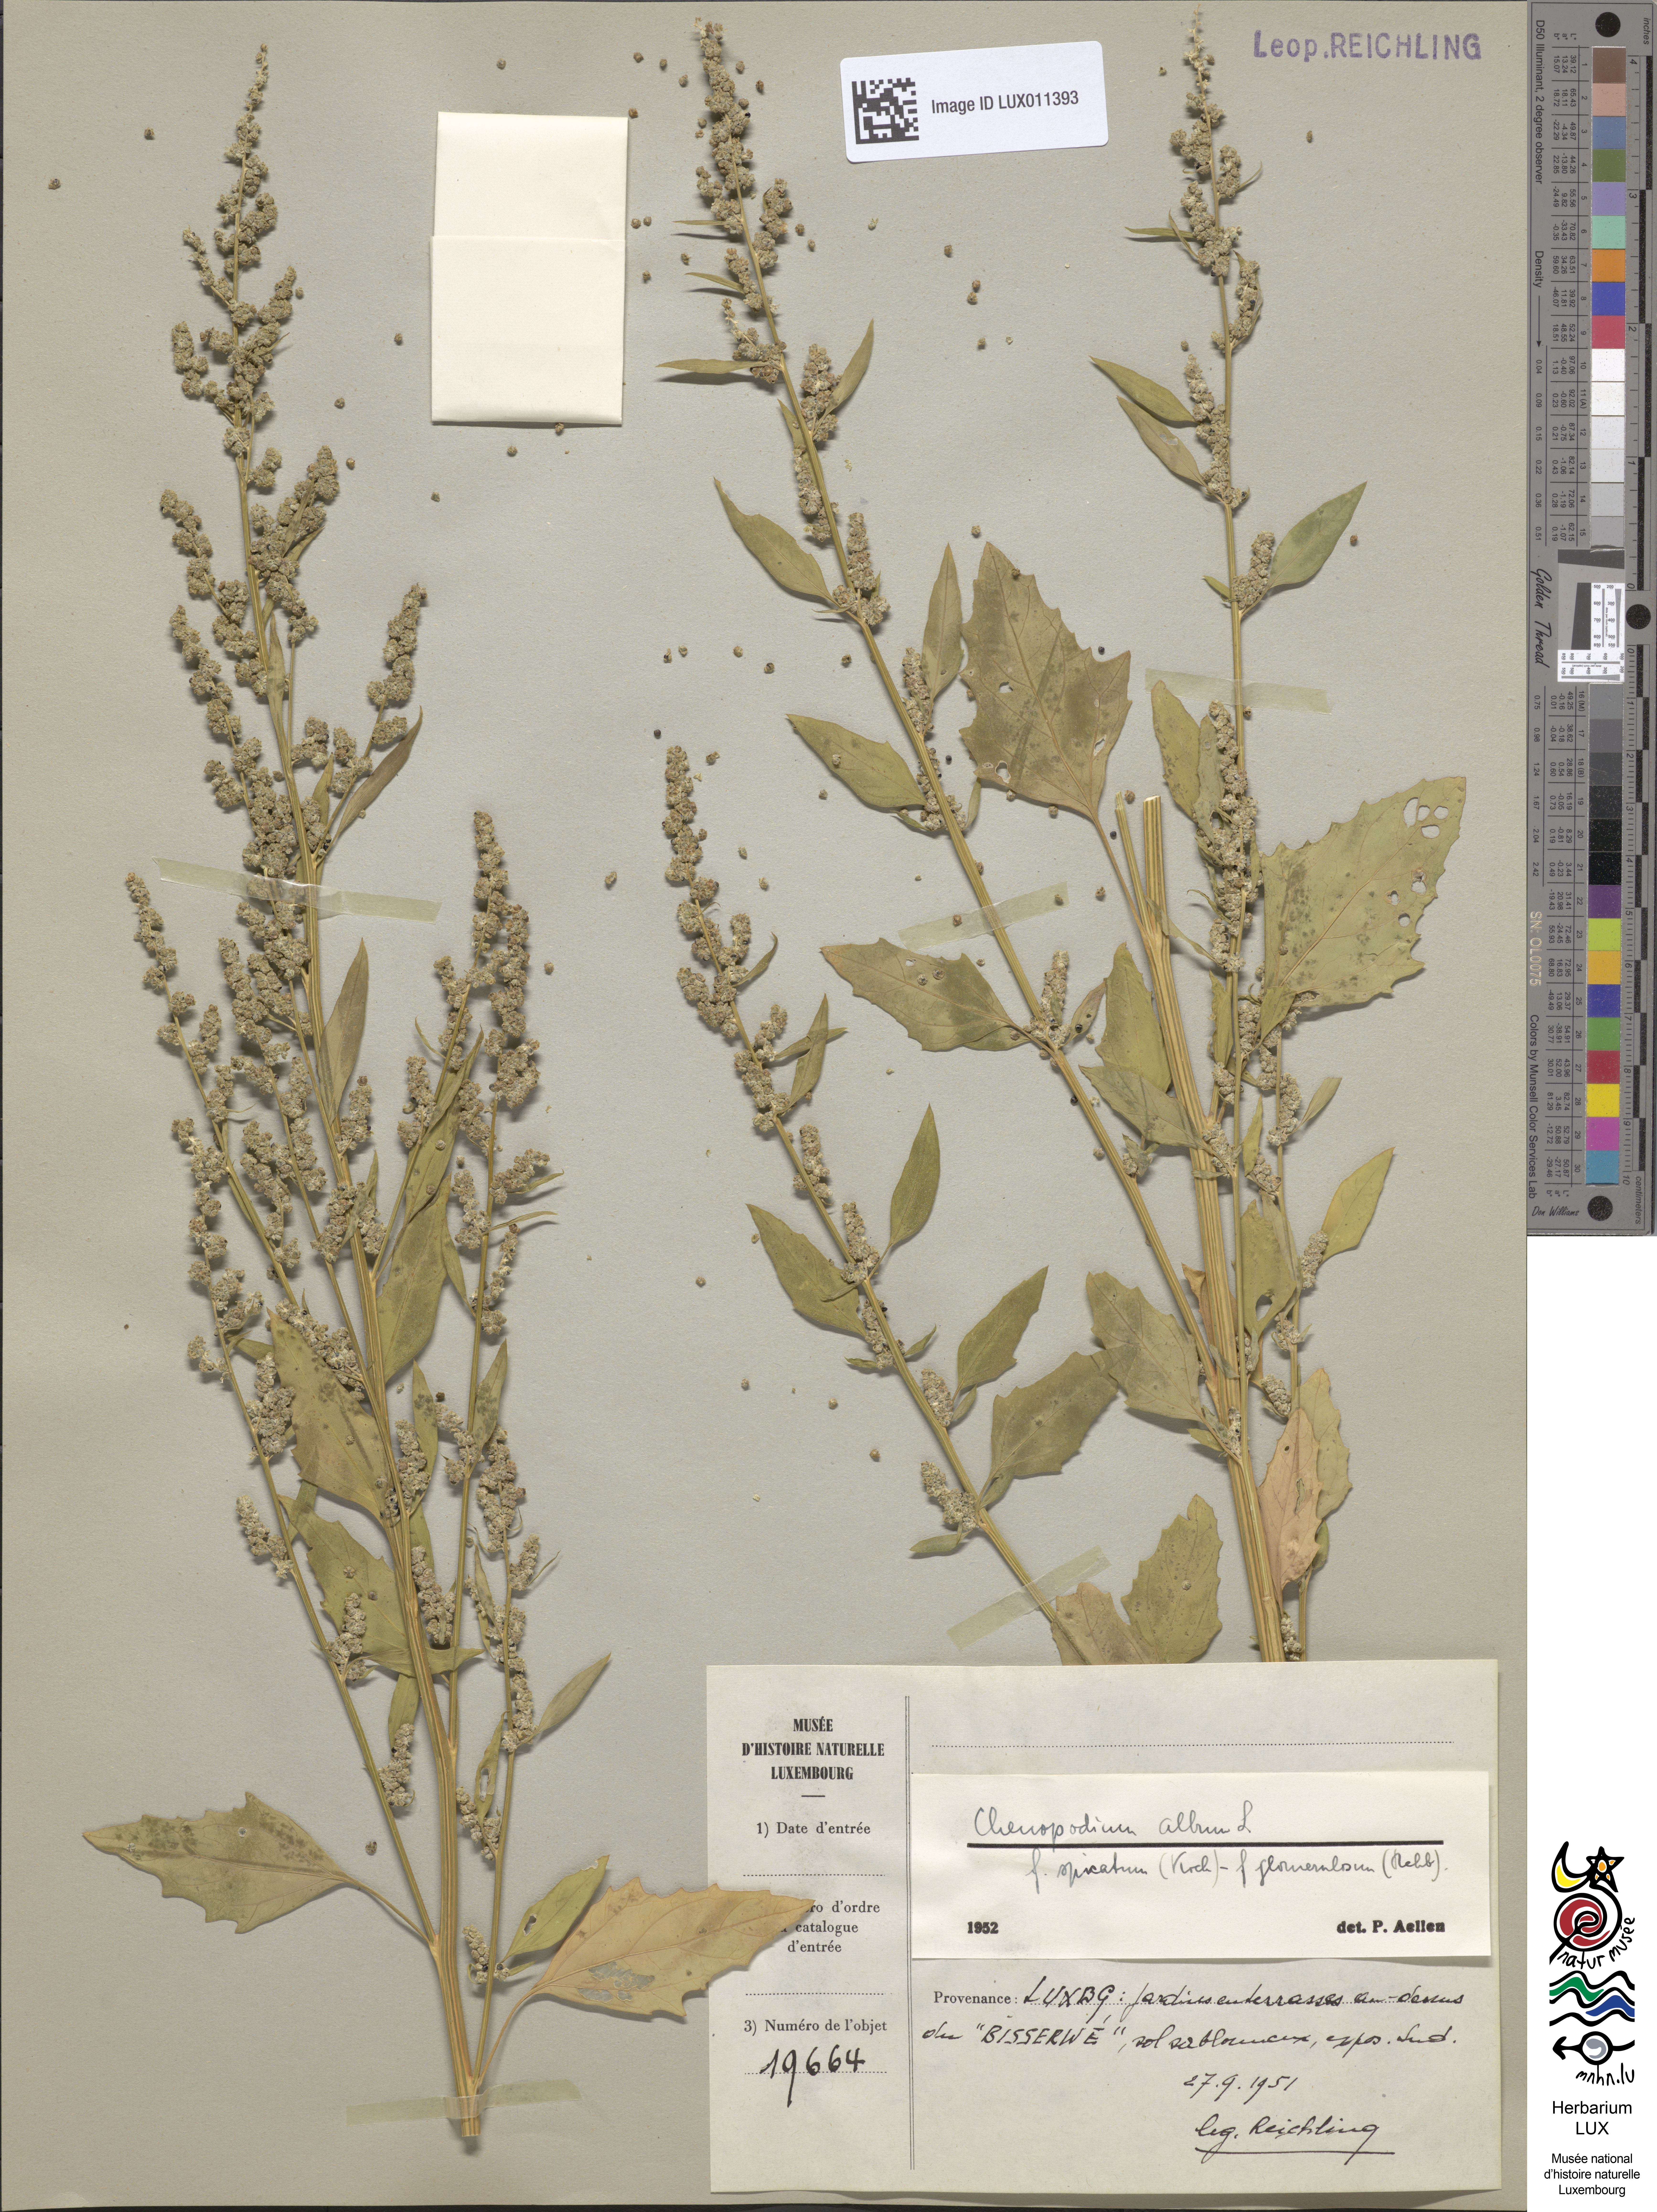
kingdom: Plantae
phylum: Tracheophyta
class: Magnoliopsida
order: Caryophyllales
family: Amaranthaceae
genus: Chenopodium
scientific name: Chenopodium album
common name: Fat-hen
